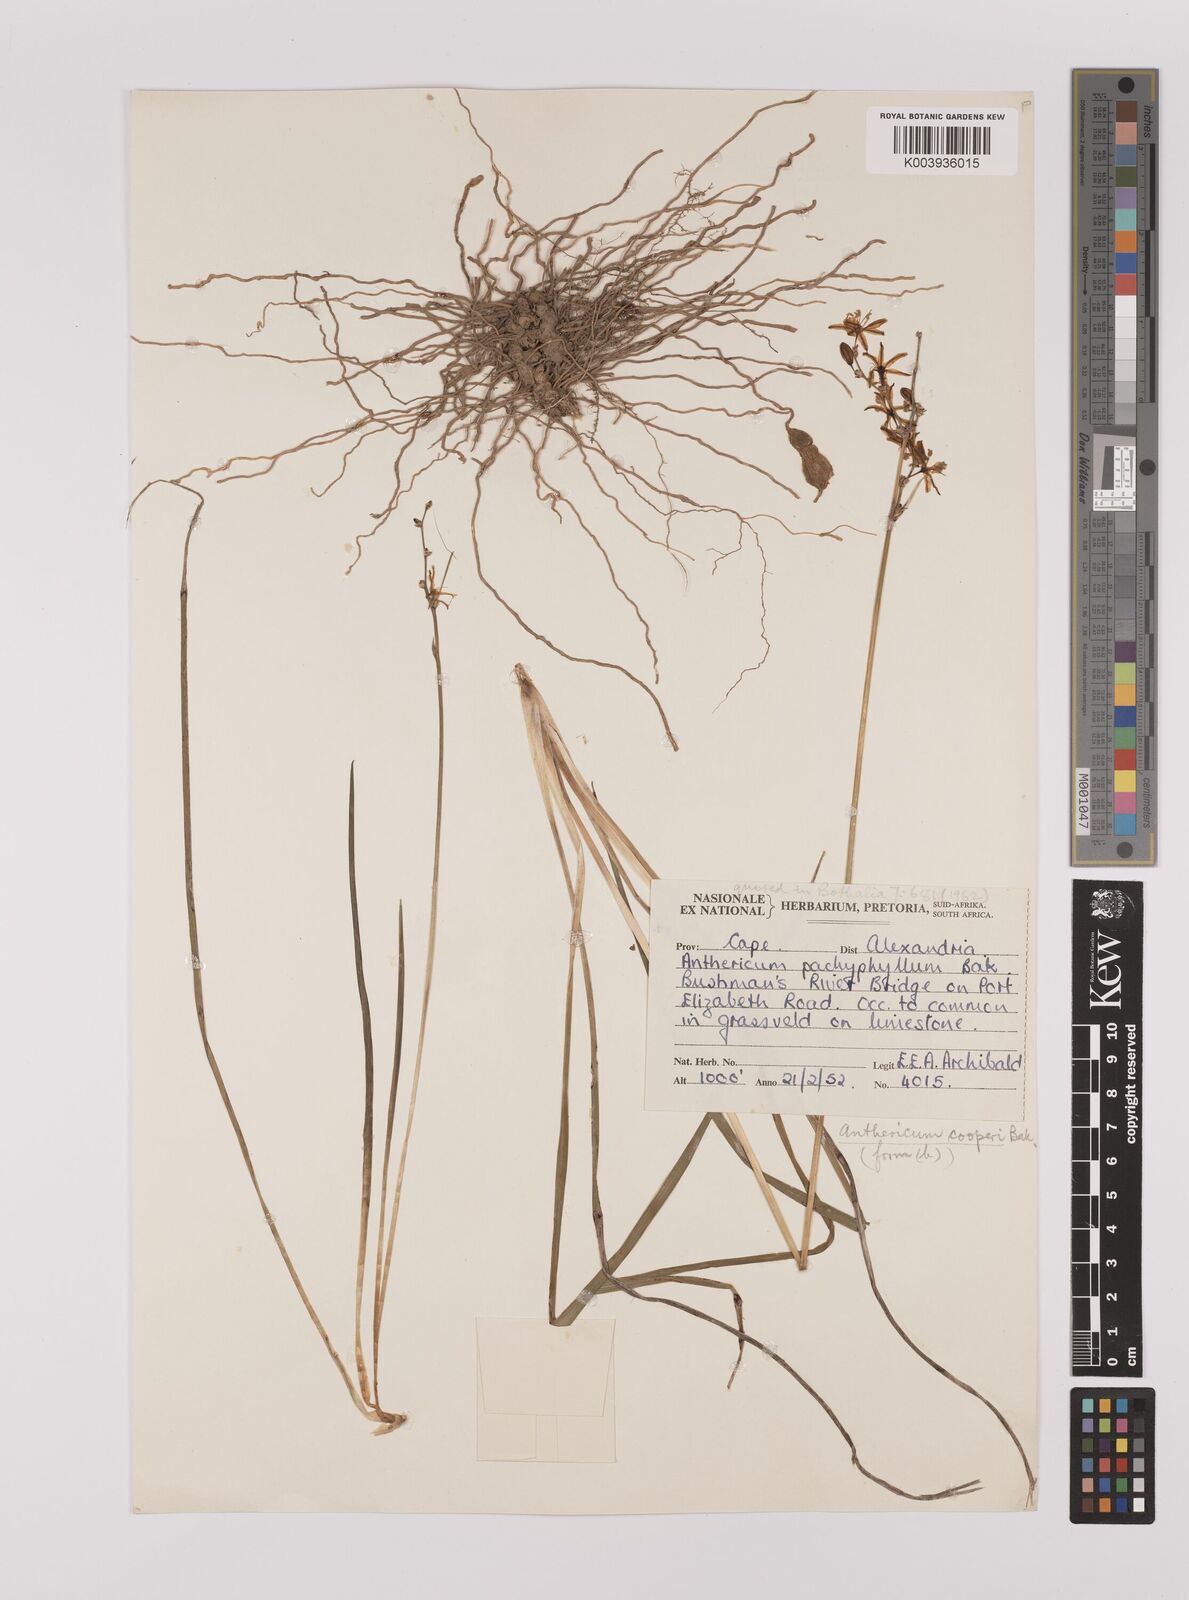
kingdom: Plantae
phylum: Tracheophyta
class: Liliopsida
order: Asparagales
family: Asparagaceae
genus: Chlorophytum
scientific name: Chlorophytum cooperi
